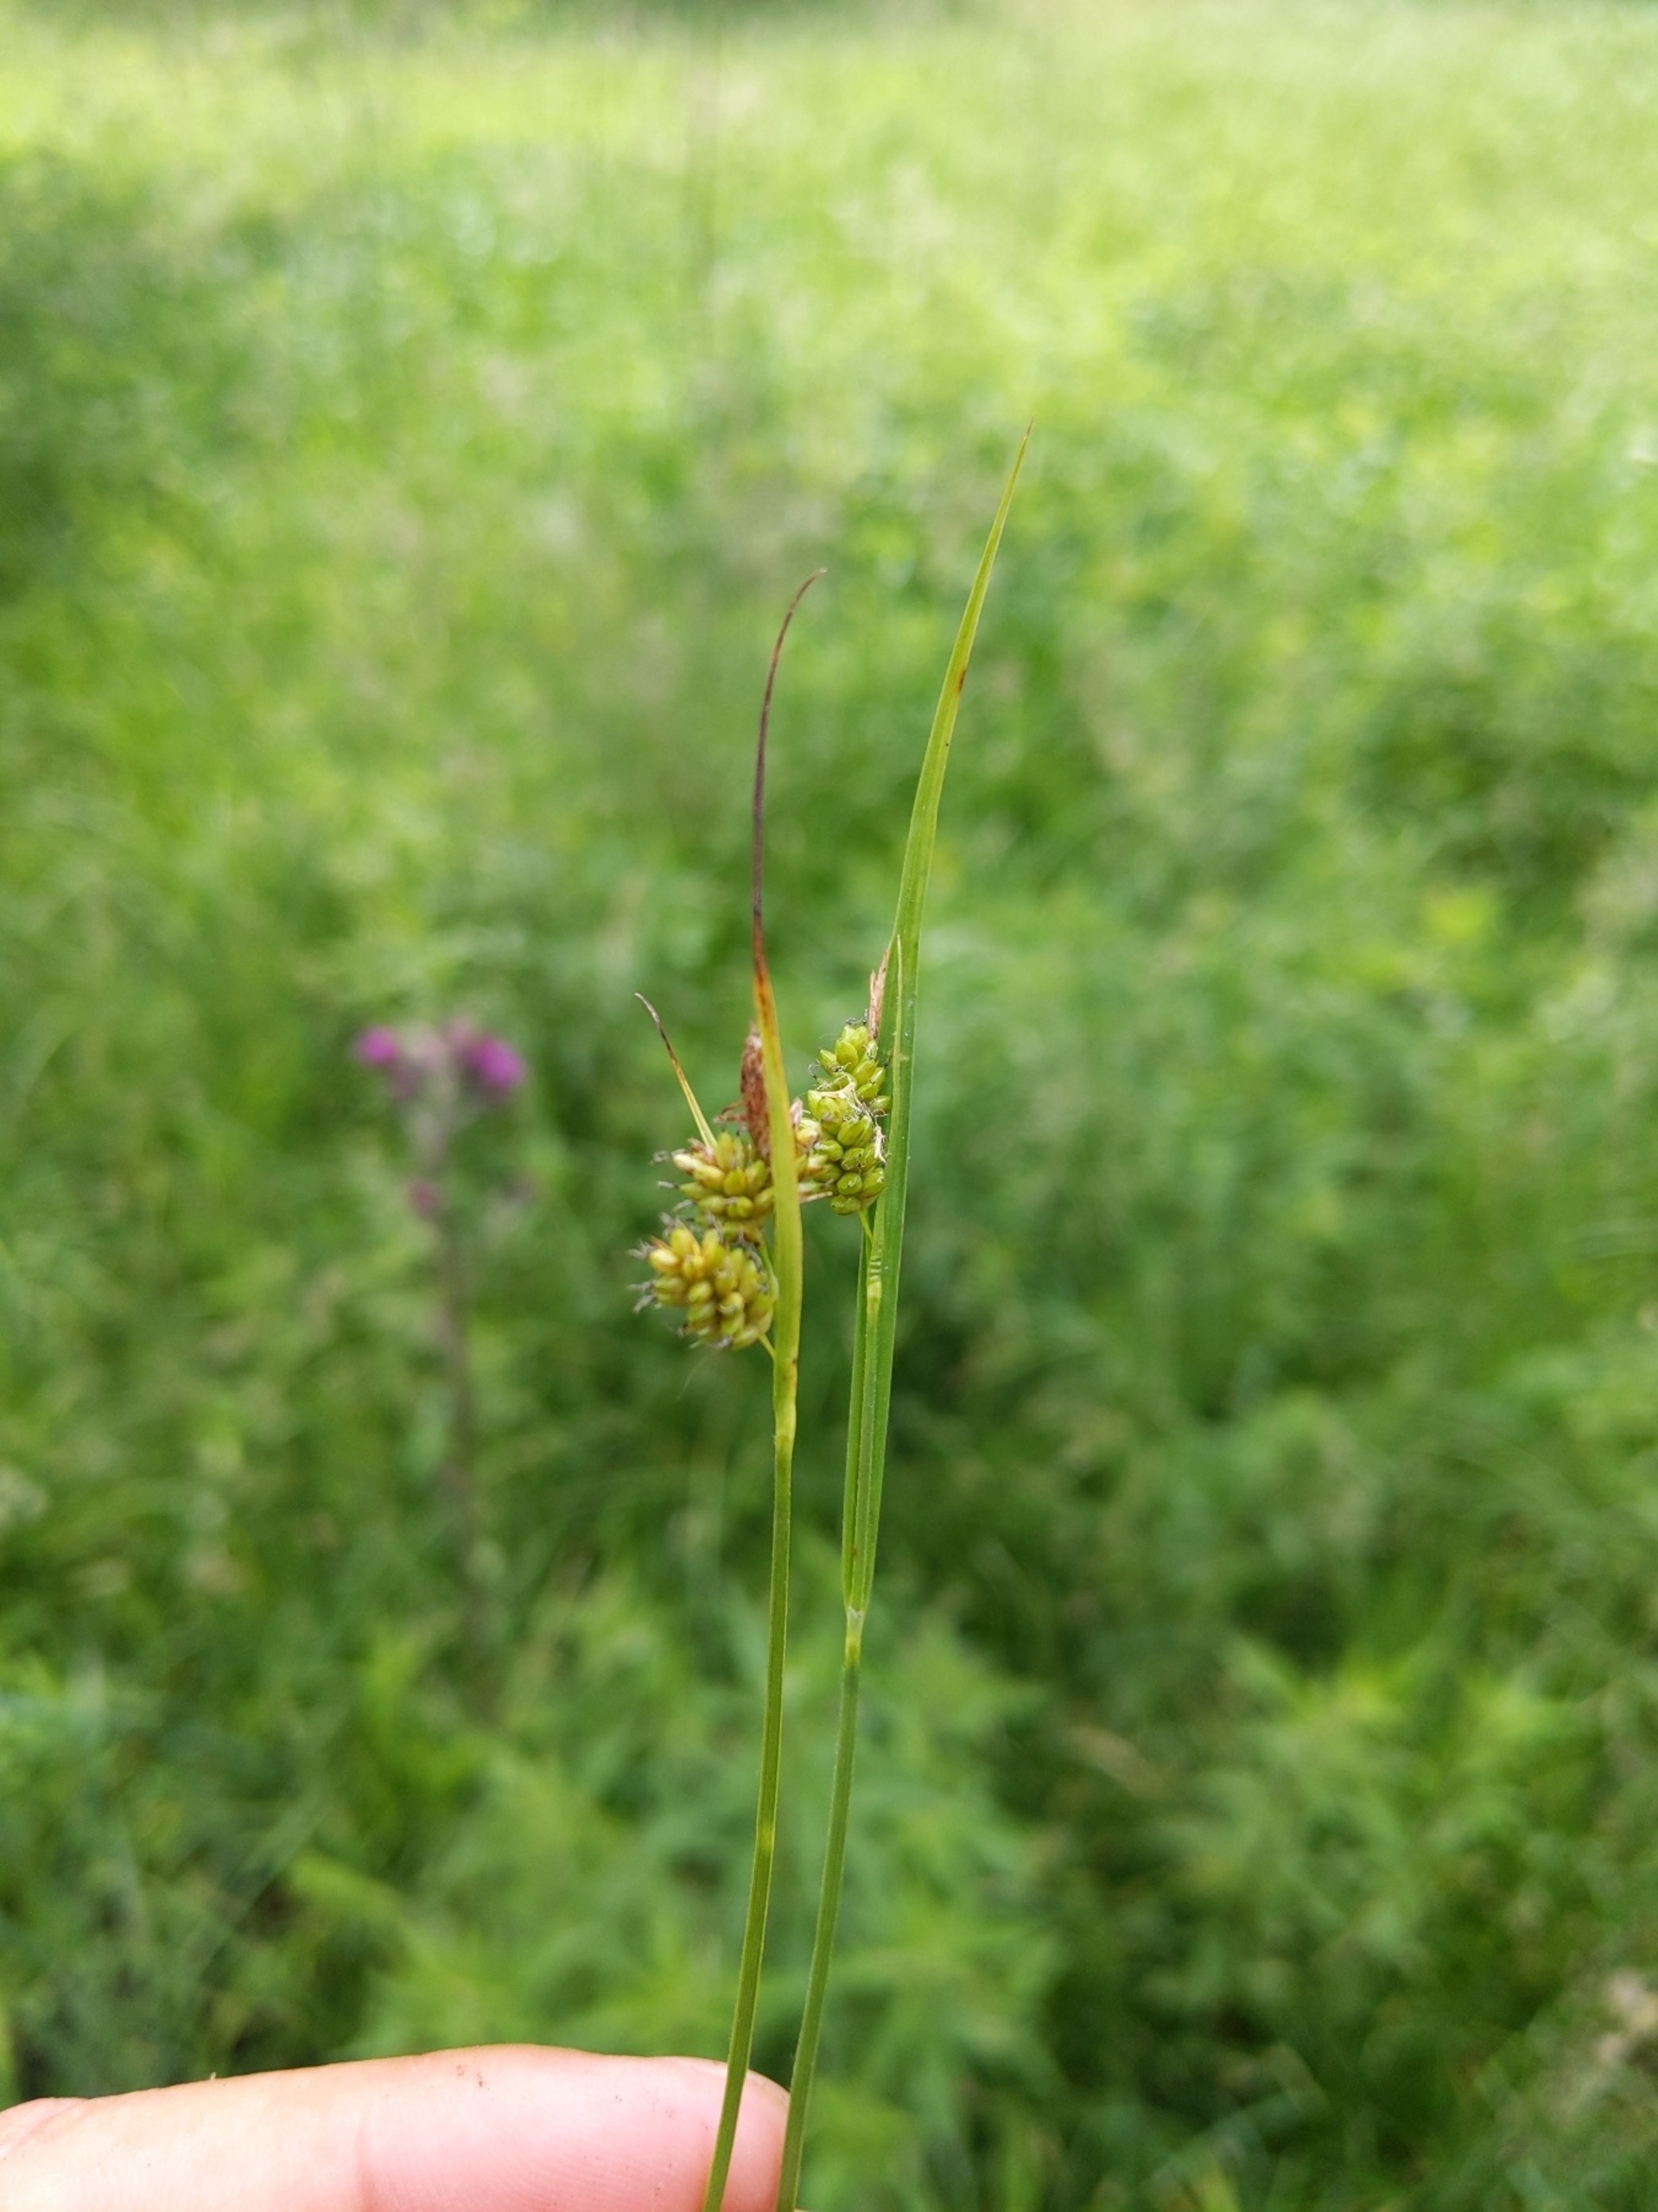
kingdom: Plantae
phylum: Tracheophyta
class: Liliopsida
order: Poales
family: Cyperaceae
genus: Carex
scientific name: Carex pallescens
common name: Bleg star
